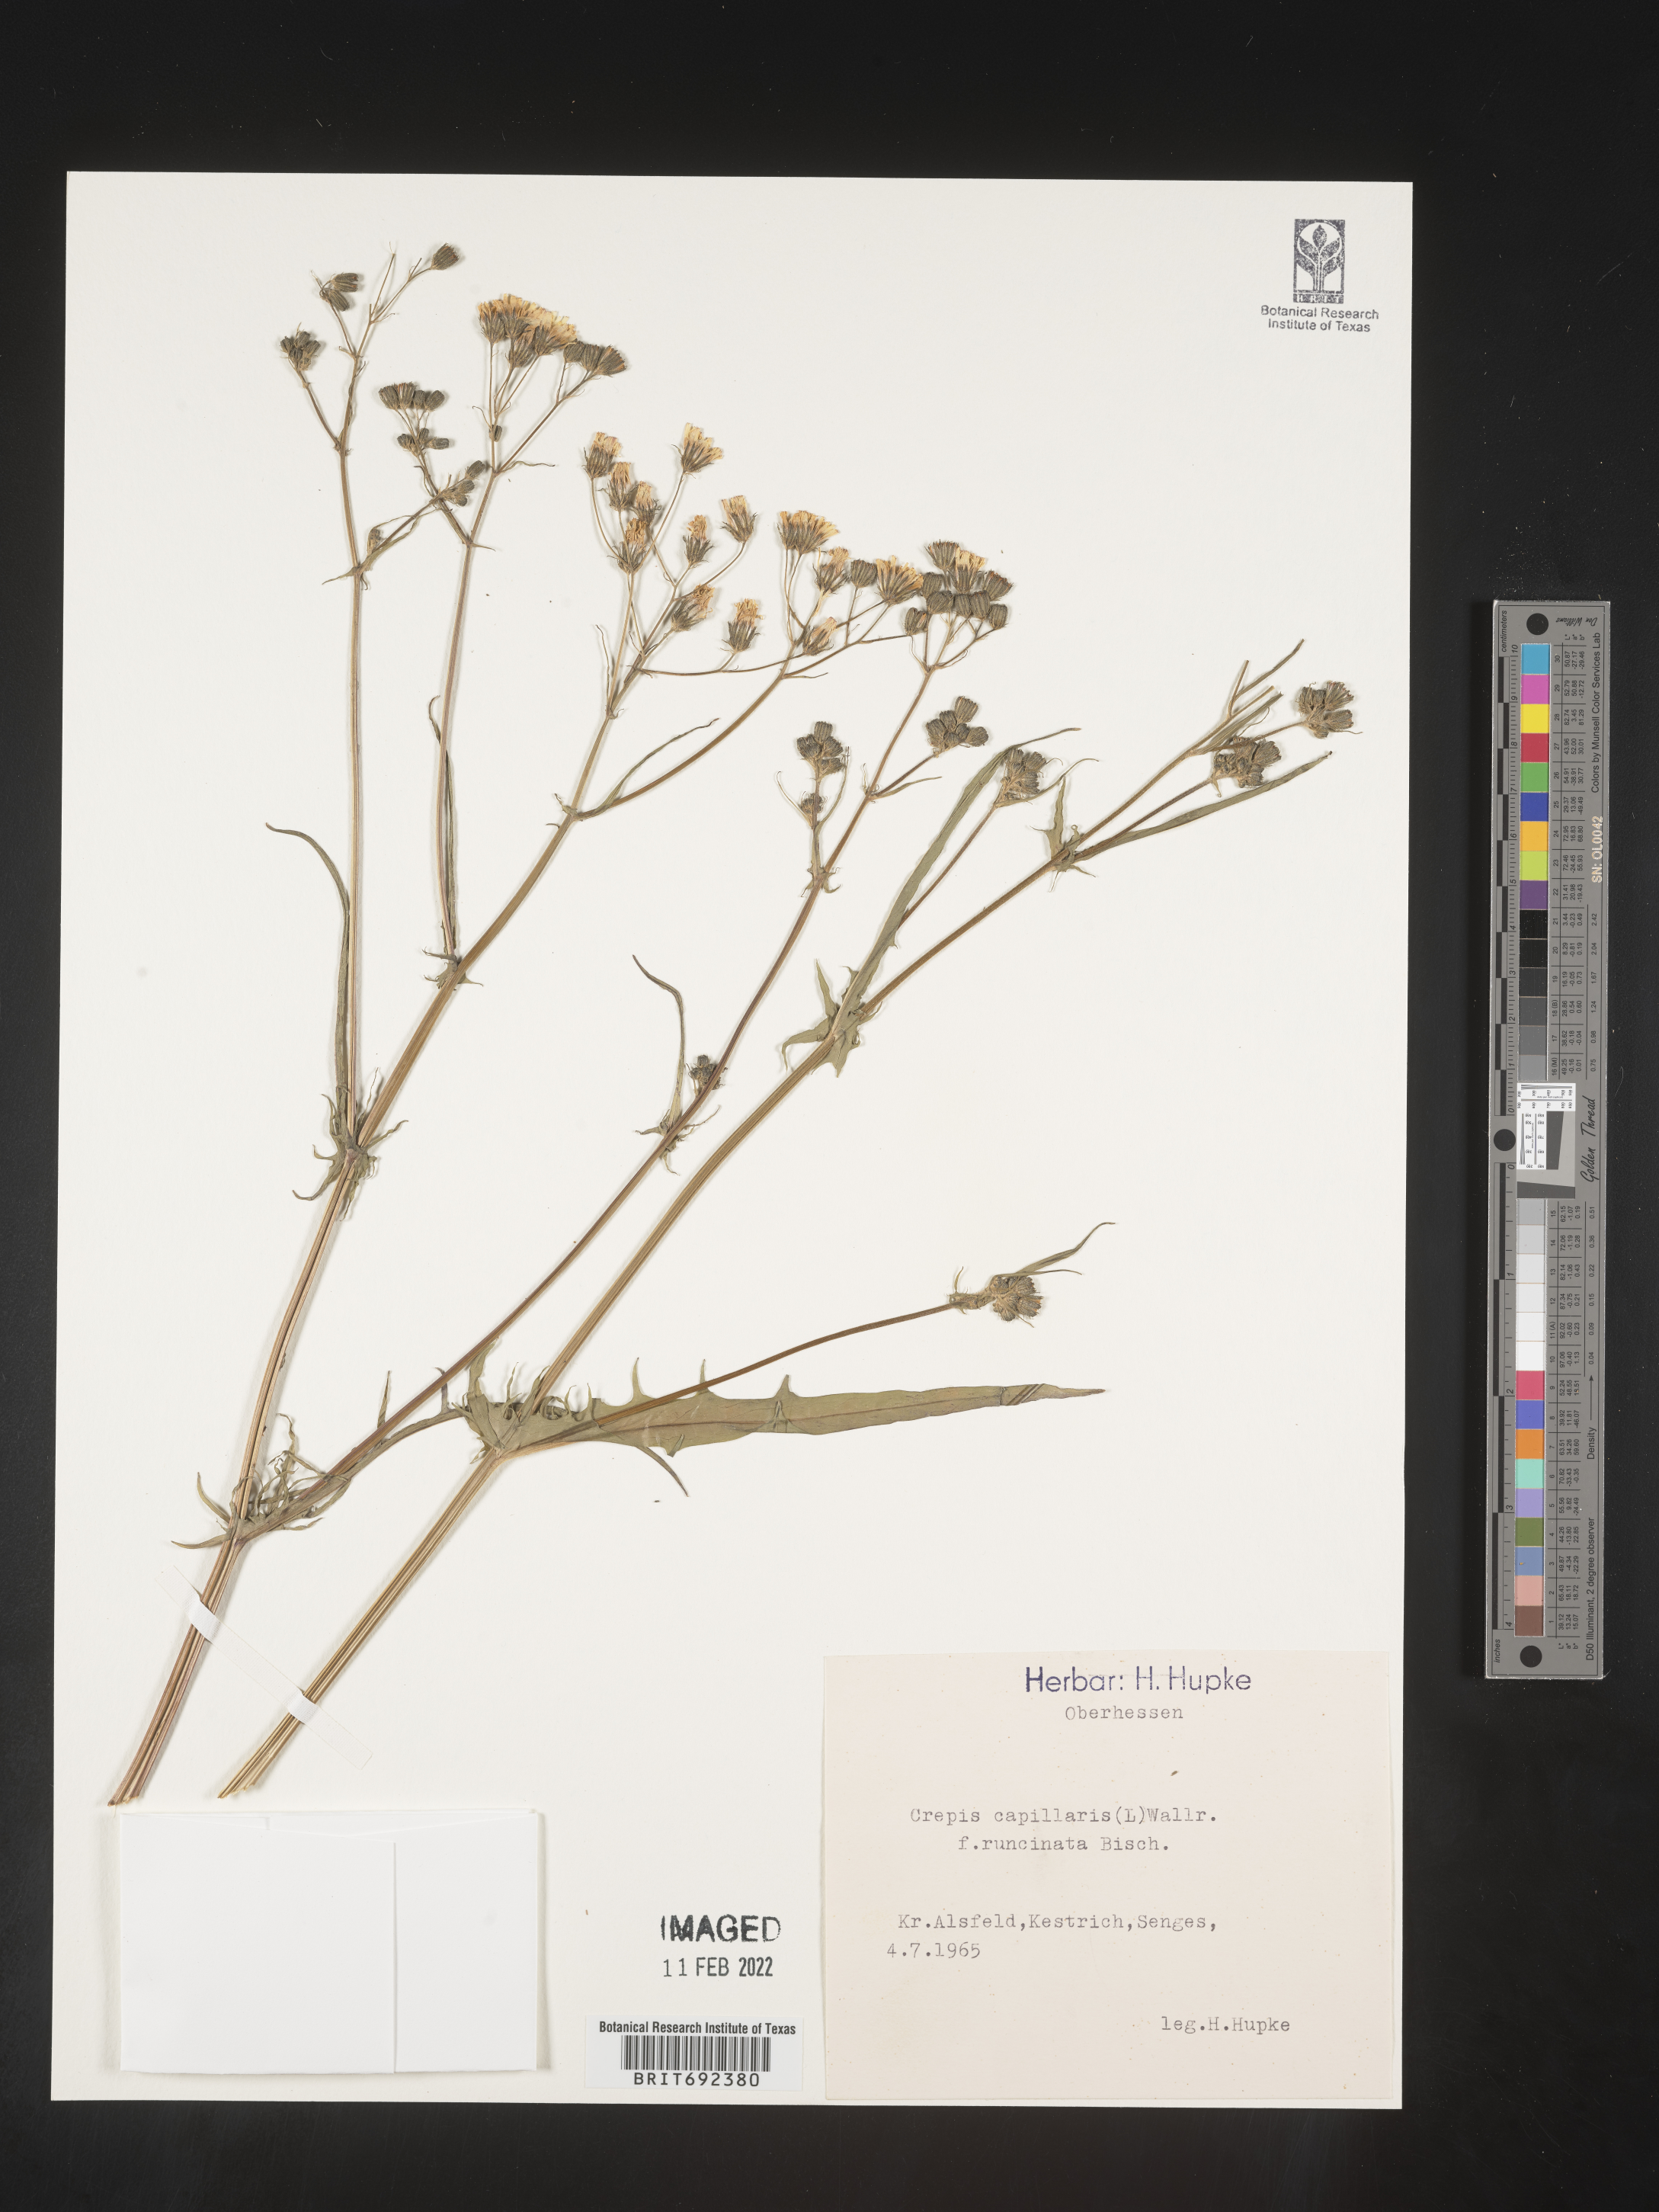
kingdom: Plantae
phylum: Tracheophyta
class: Magnoliopsida
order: Asterales
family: Asteraceae
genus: Crepis
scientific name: Crepis
